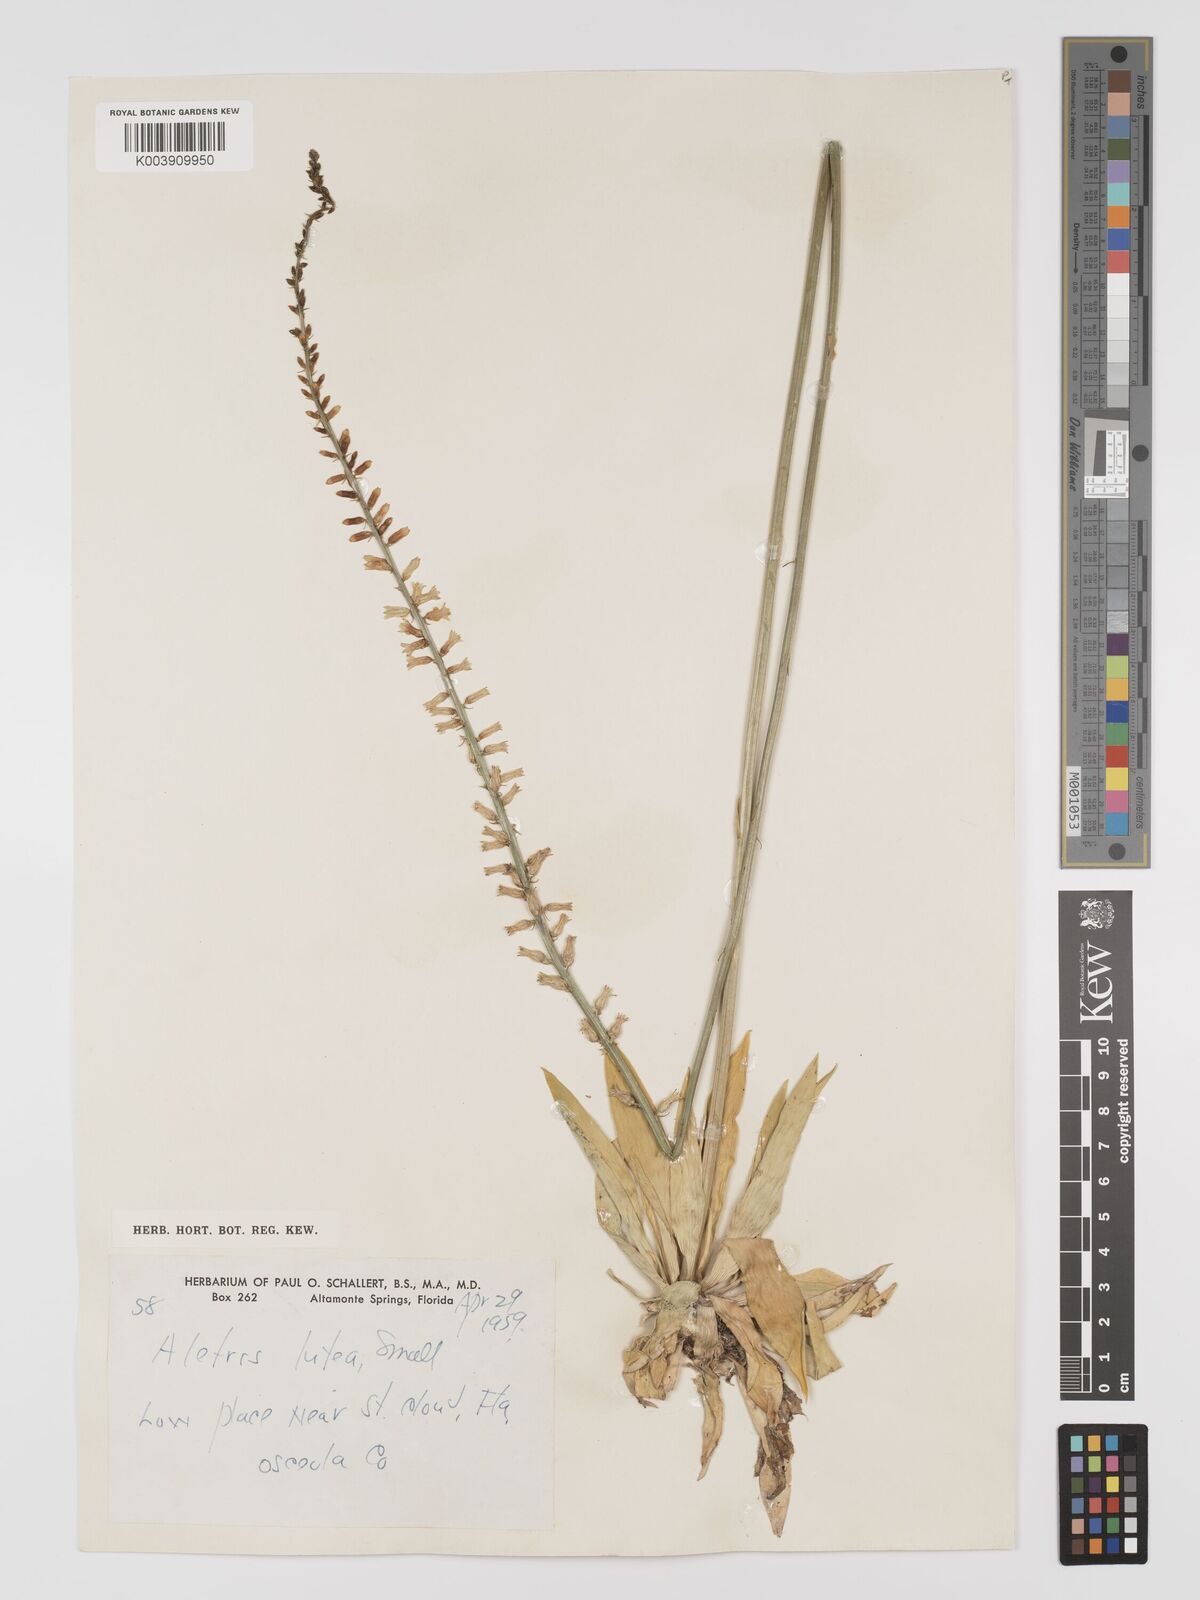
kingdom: Plantae
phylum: Tracheophyta
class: Liliopsida
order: Dioscoreales
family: Nartheciaceae
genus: Aletris
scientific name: Aletris lutea
